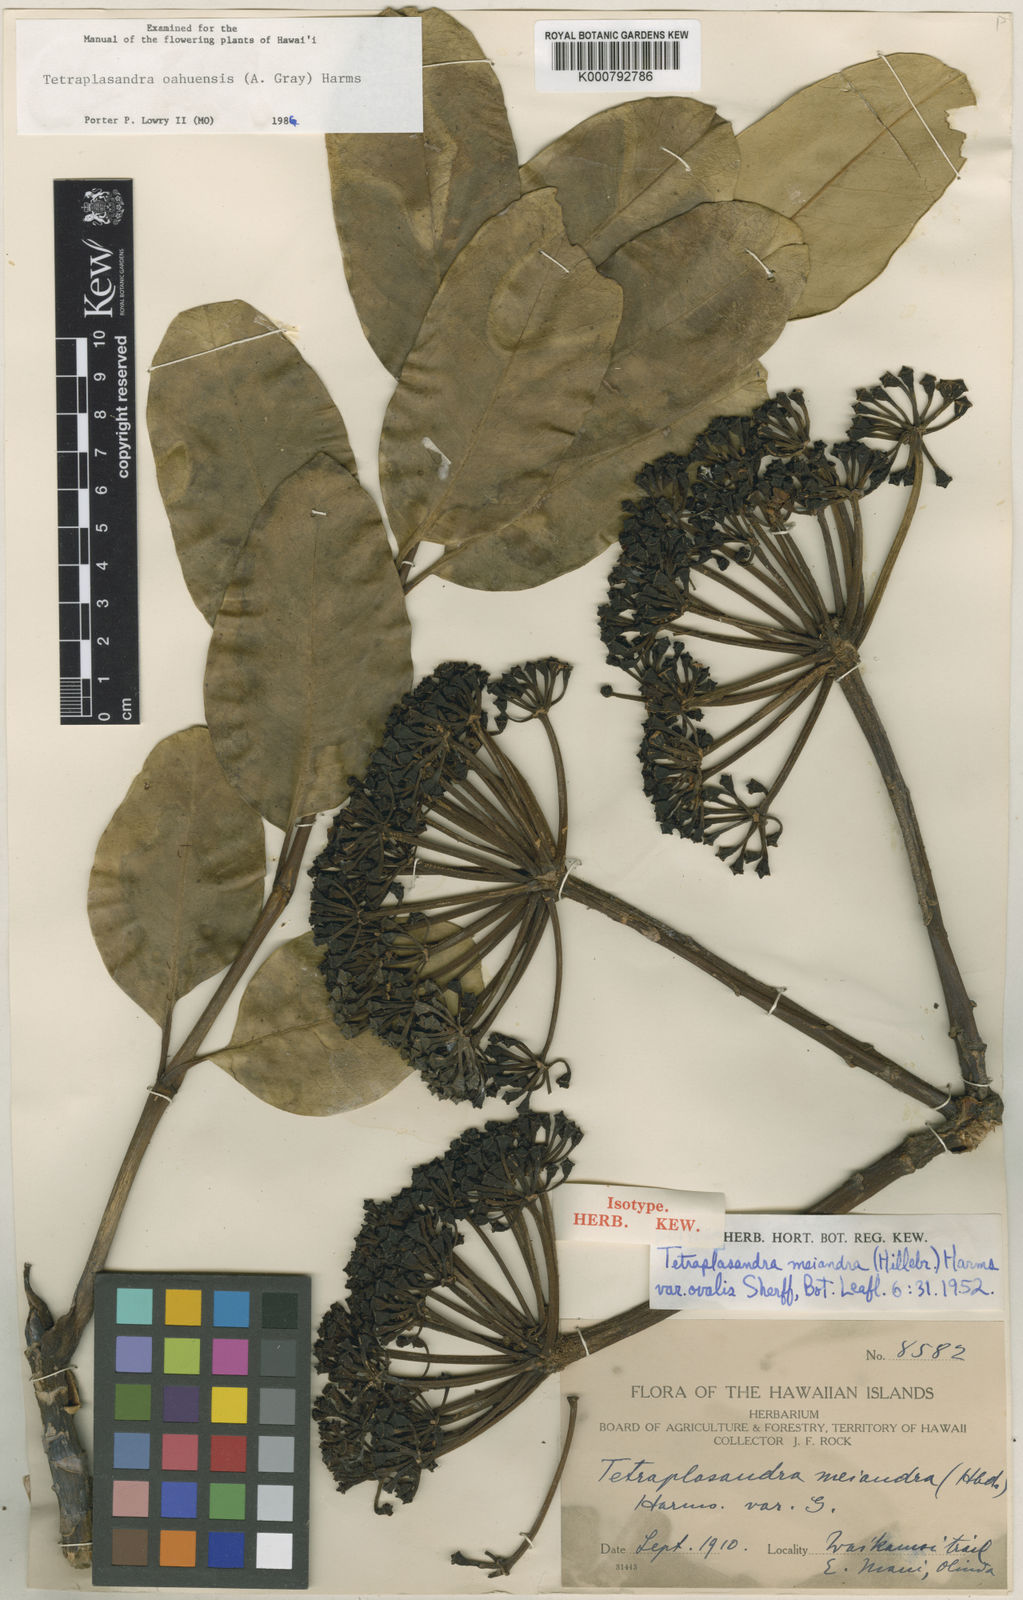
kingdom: Plantae
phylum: Tracheophyta
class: Magnoliopsida
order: Apiales
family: Araliaceae
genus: Polyscias
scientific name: Polyscias oahuensis
